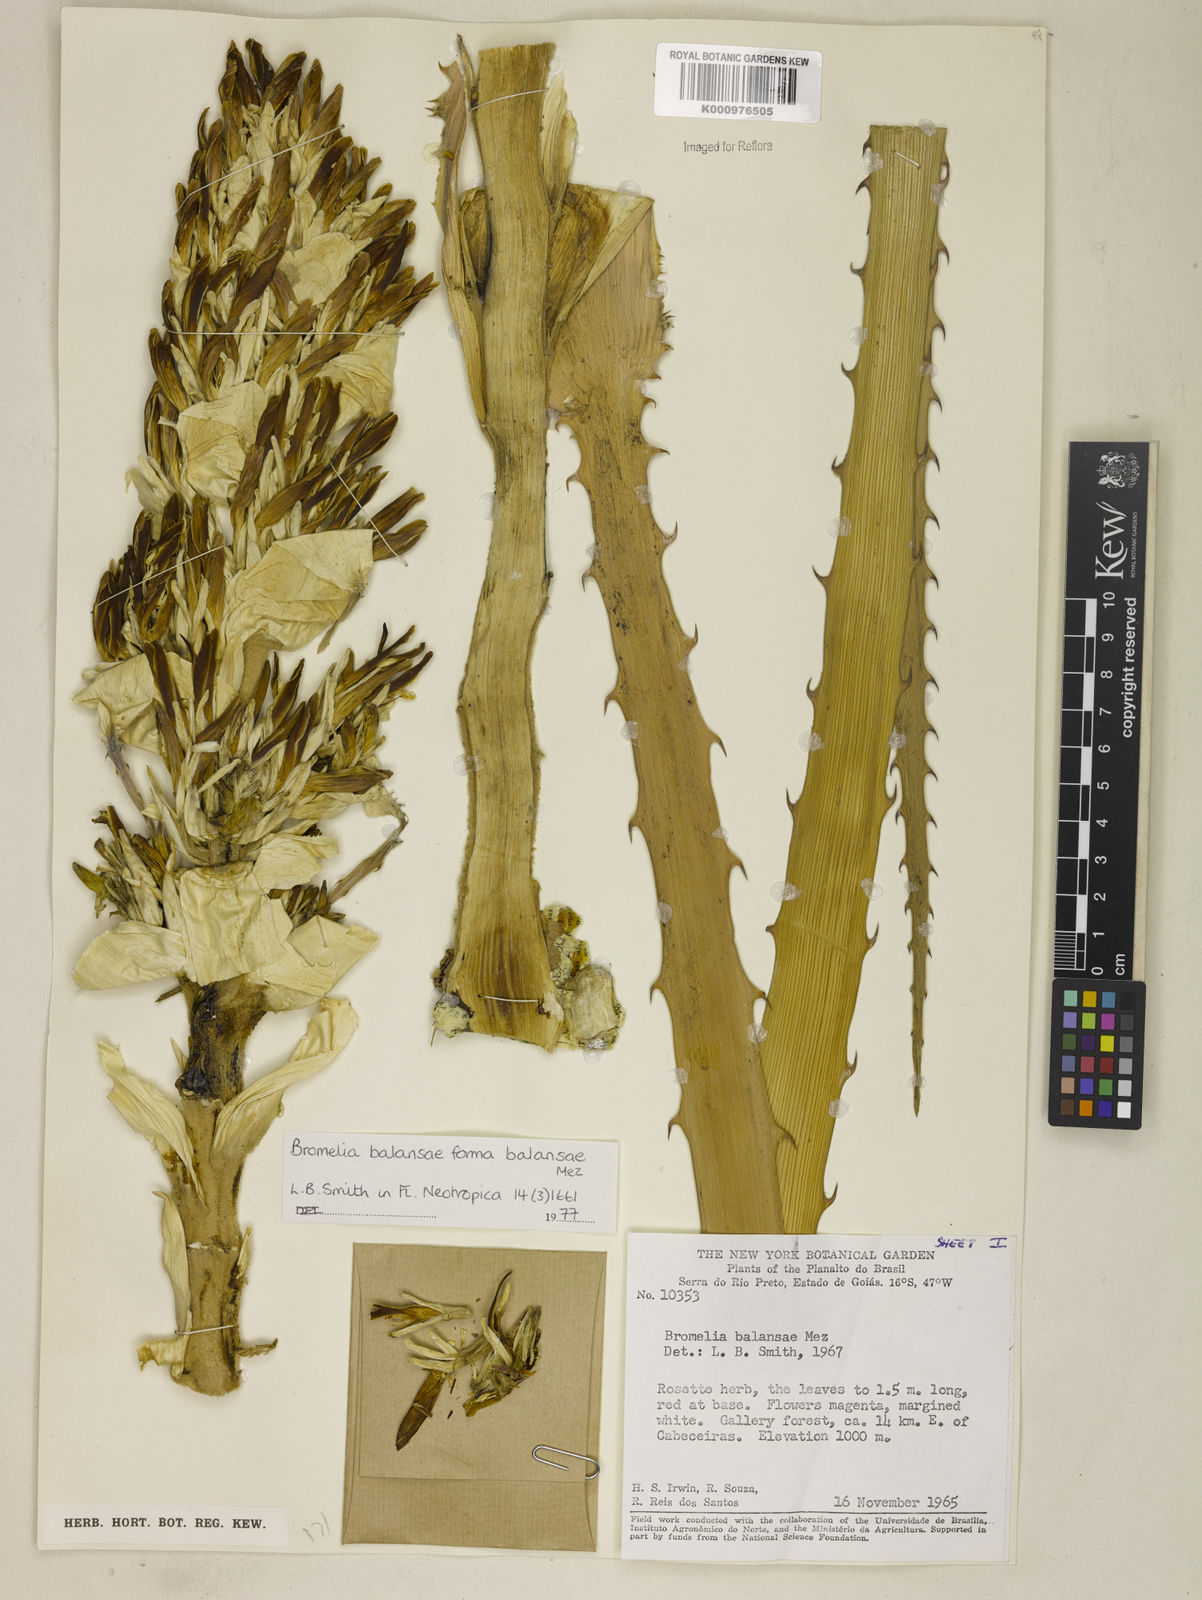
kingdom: Plantae
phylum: Tracheophyta
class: Liliopsida
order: Poales
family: Bromeliaceae
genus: Bromelia
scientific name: Bromelia balansae
